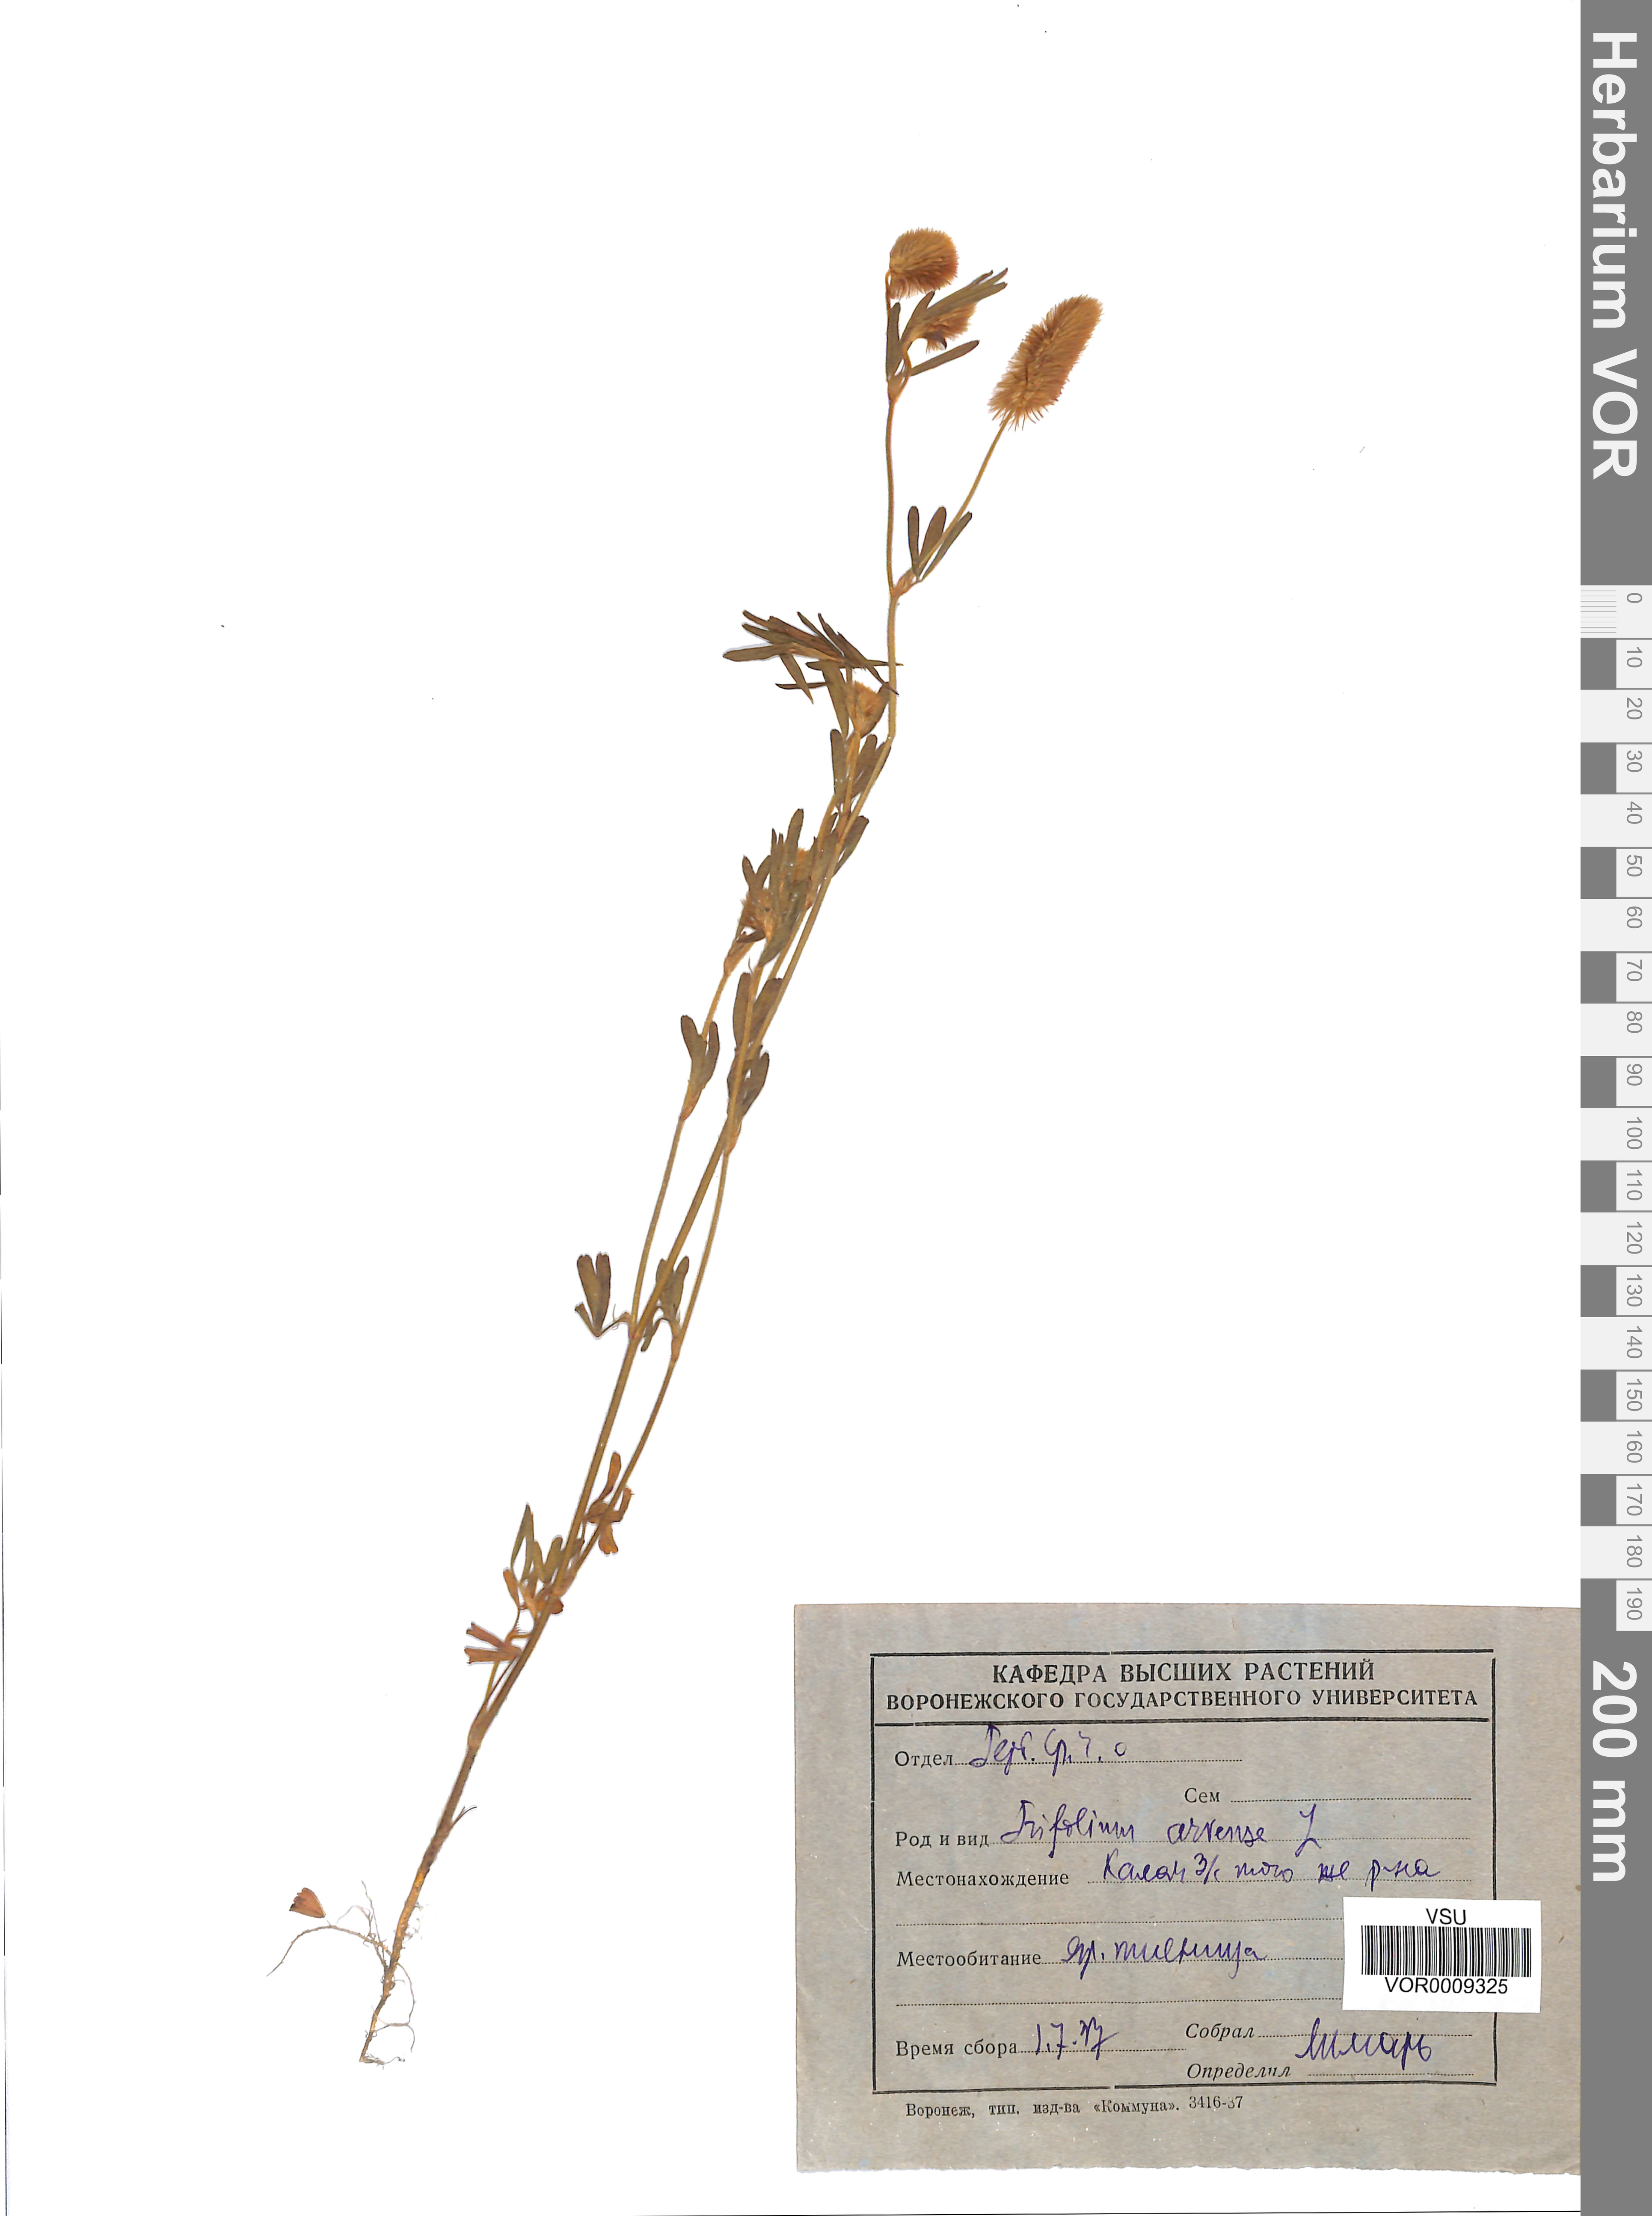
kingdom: Plantae
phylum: Tracheophyta
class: Magnoliopsida
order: Fabales
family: Fabaceae
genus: Trifolium
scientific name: Trifolium arvense
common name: Hare's-foot clover
